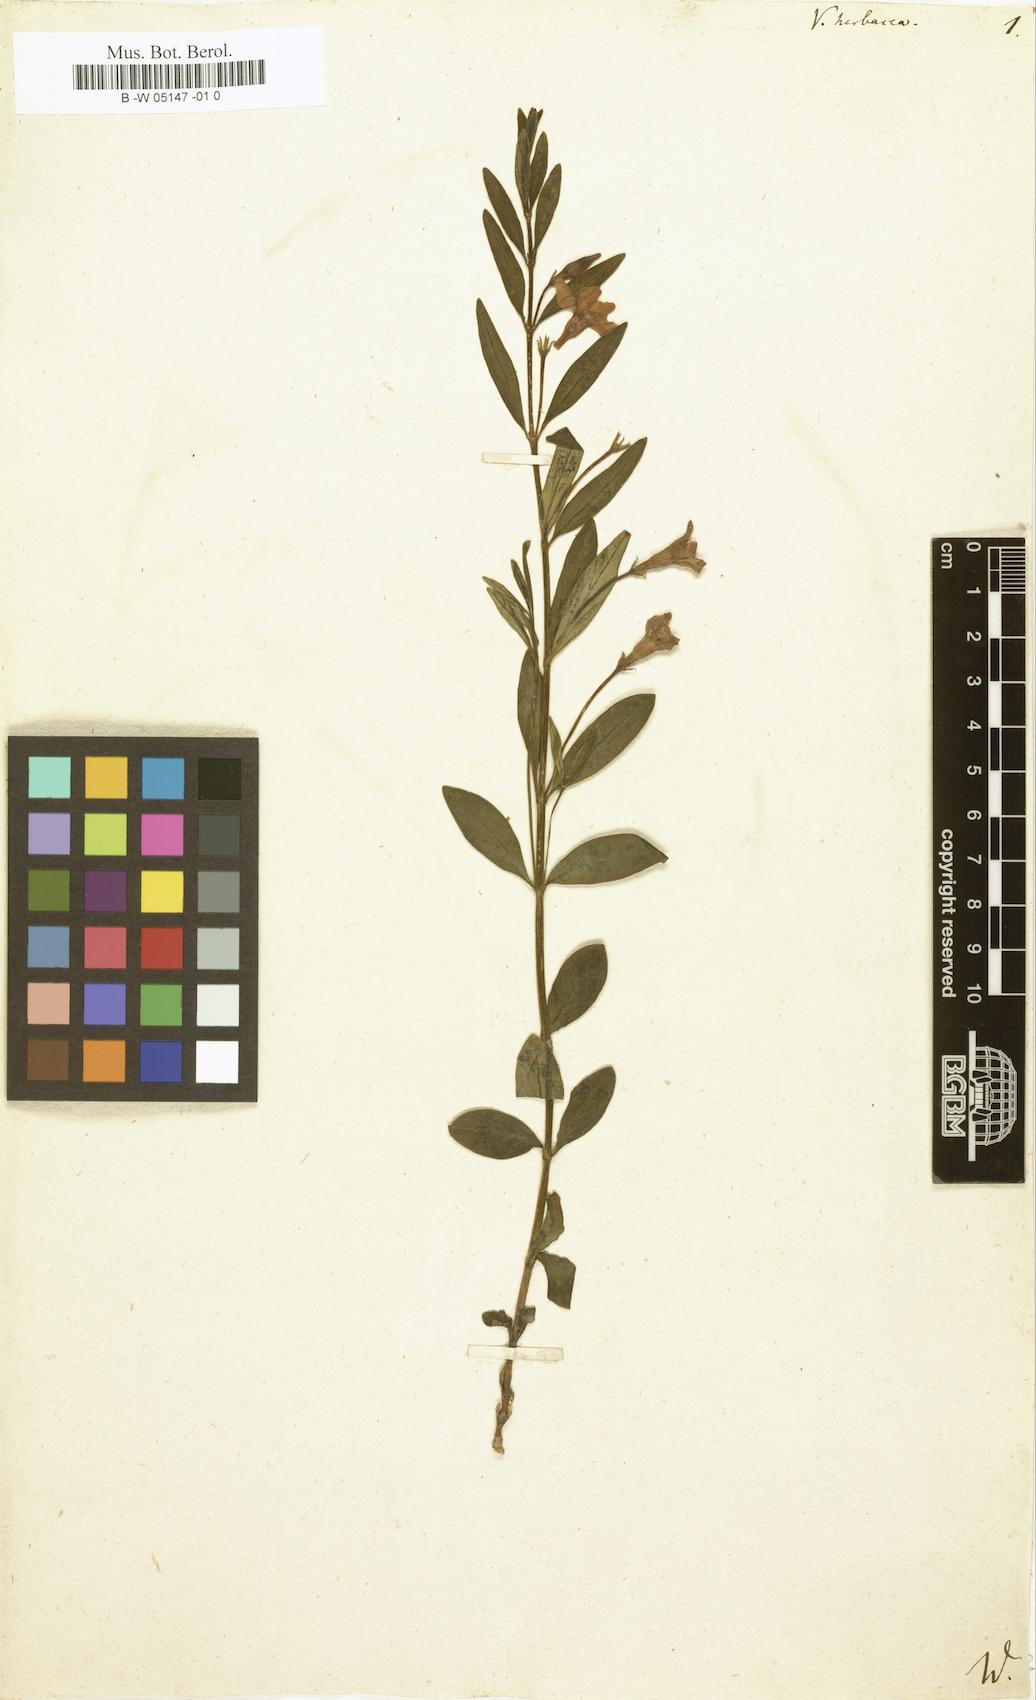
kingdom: Plantae
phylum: Tracheophyta
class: Magnoliopsida
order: Gentianales
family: Apocynaceae
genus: Vinca
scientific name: Vinca herbacea
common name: Herbaceous periwinkle
